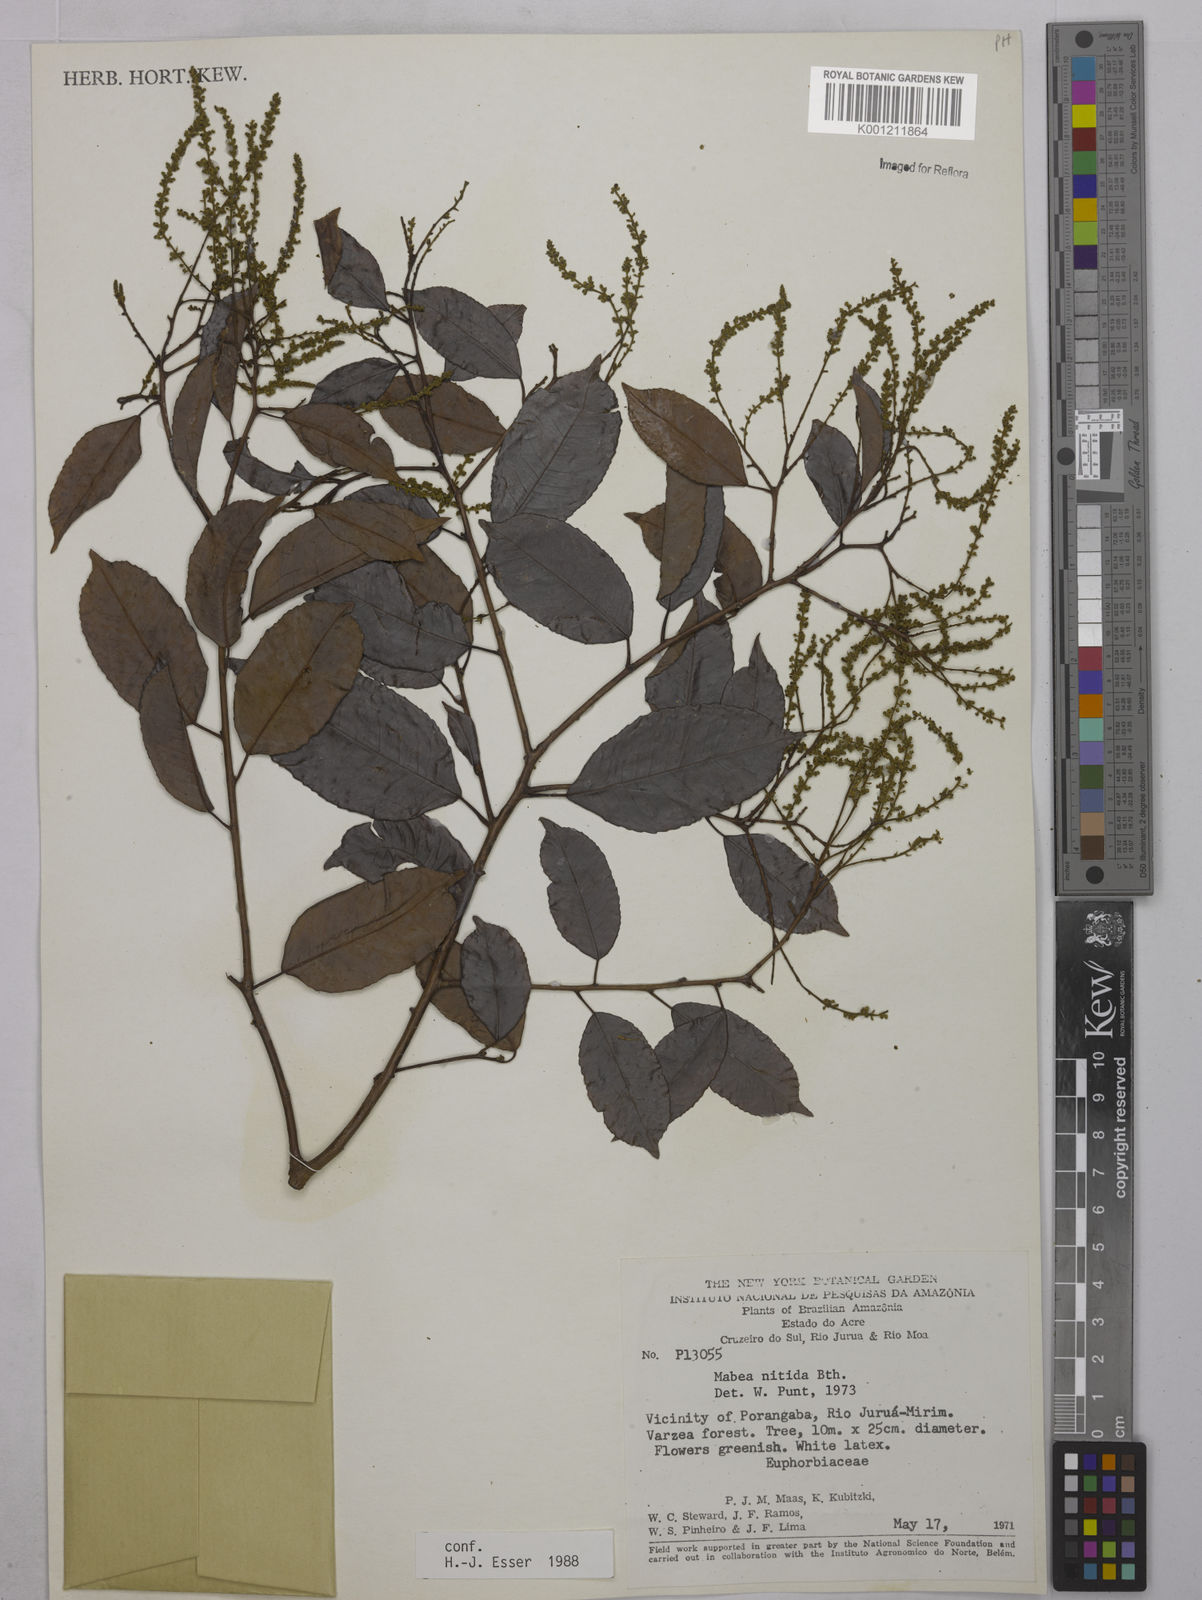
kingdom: Plantae
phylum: Tracheophyta
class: Magnoliopsida
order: Malpighiales
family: Euphorbiaceae
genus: Mabea
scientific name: Mabea nitida
